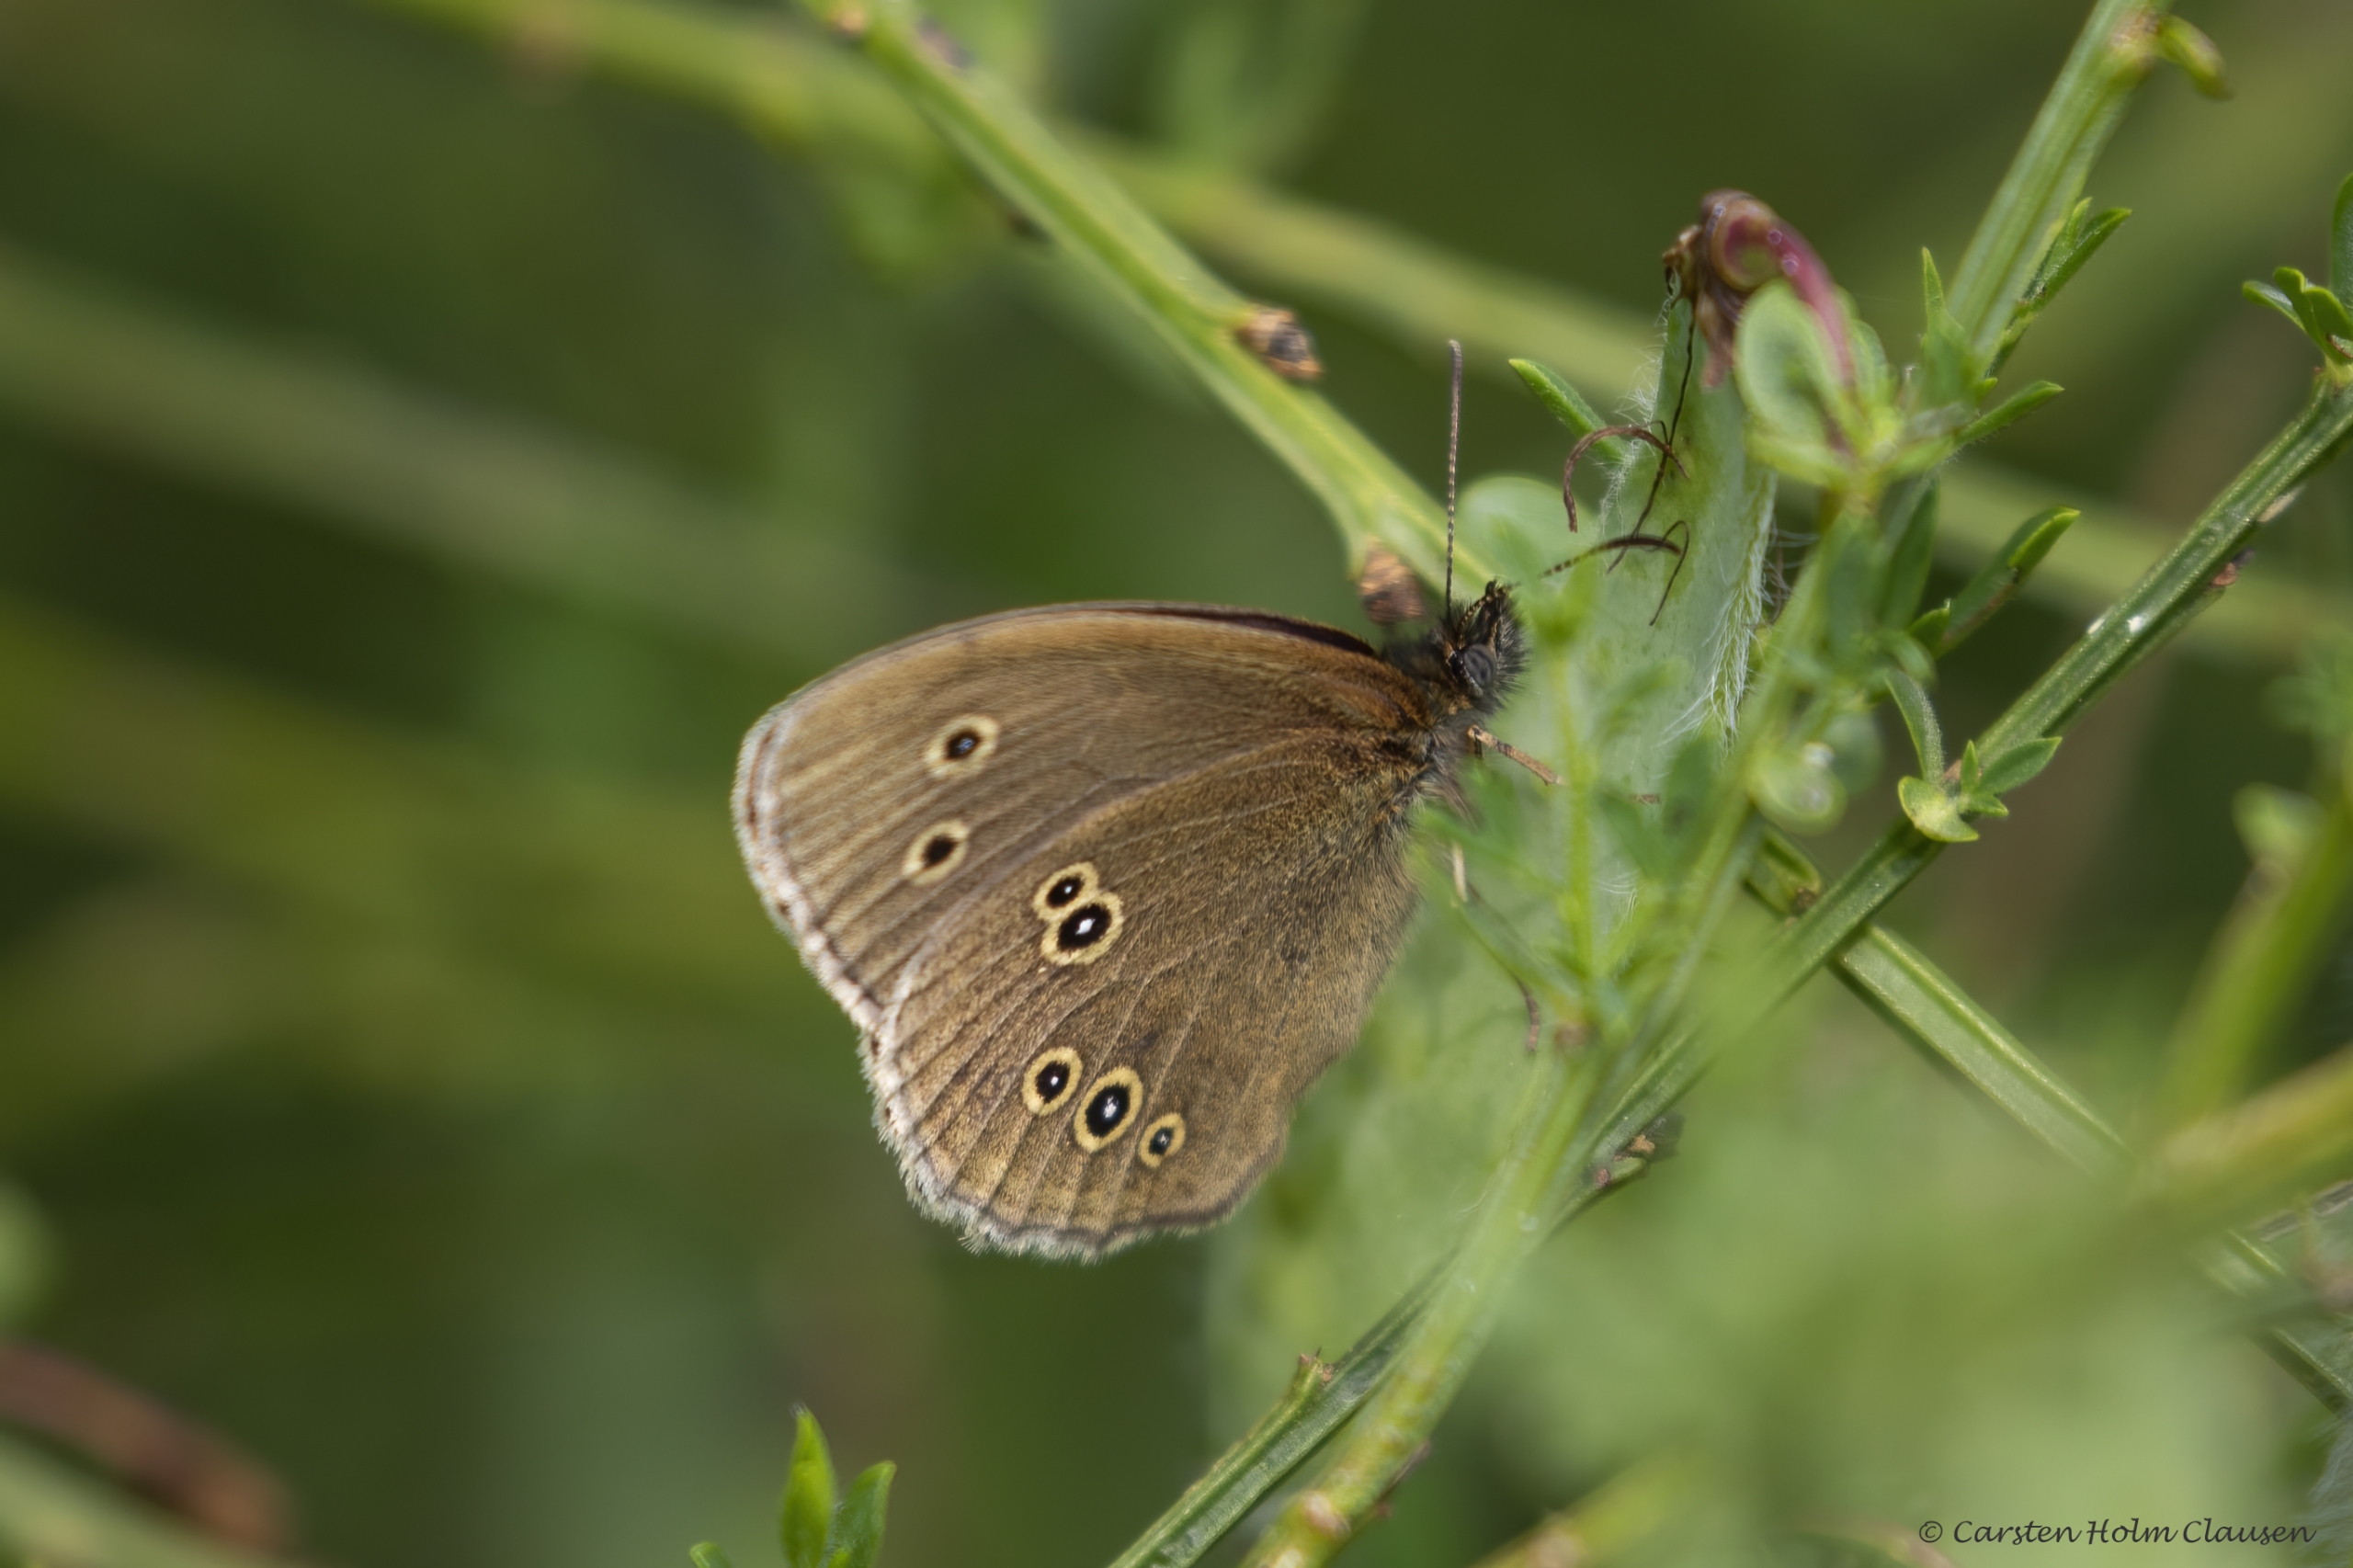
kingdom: Animalia
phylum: Arthropoda
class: Insecta
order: Lepidoptera
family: Nymphalidae
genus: Aphantopus
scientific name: Aphantopus hyperantus
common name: Engrandøje
